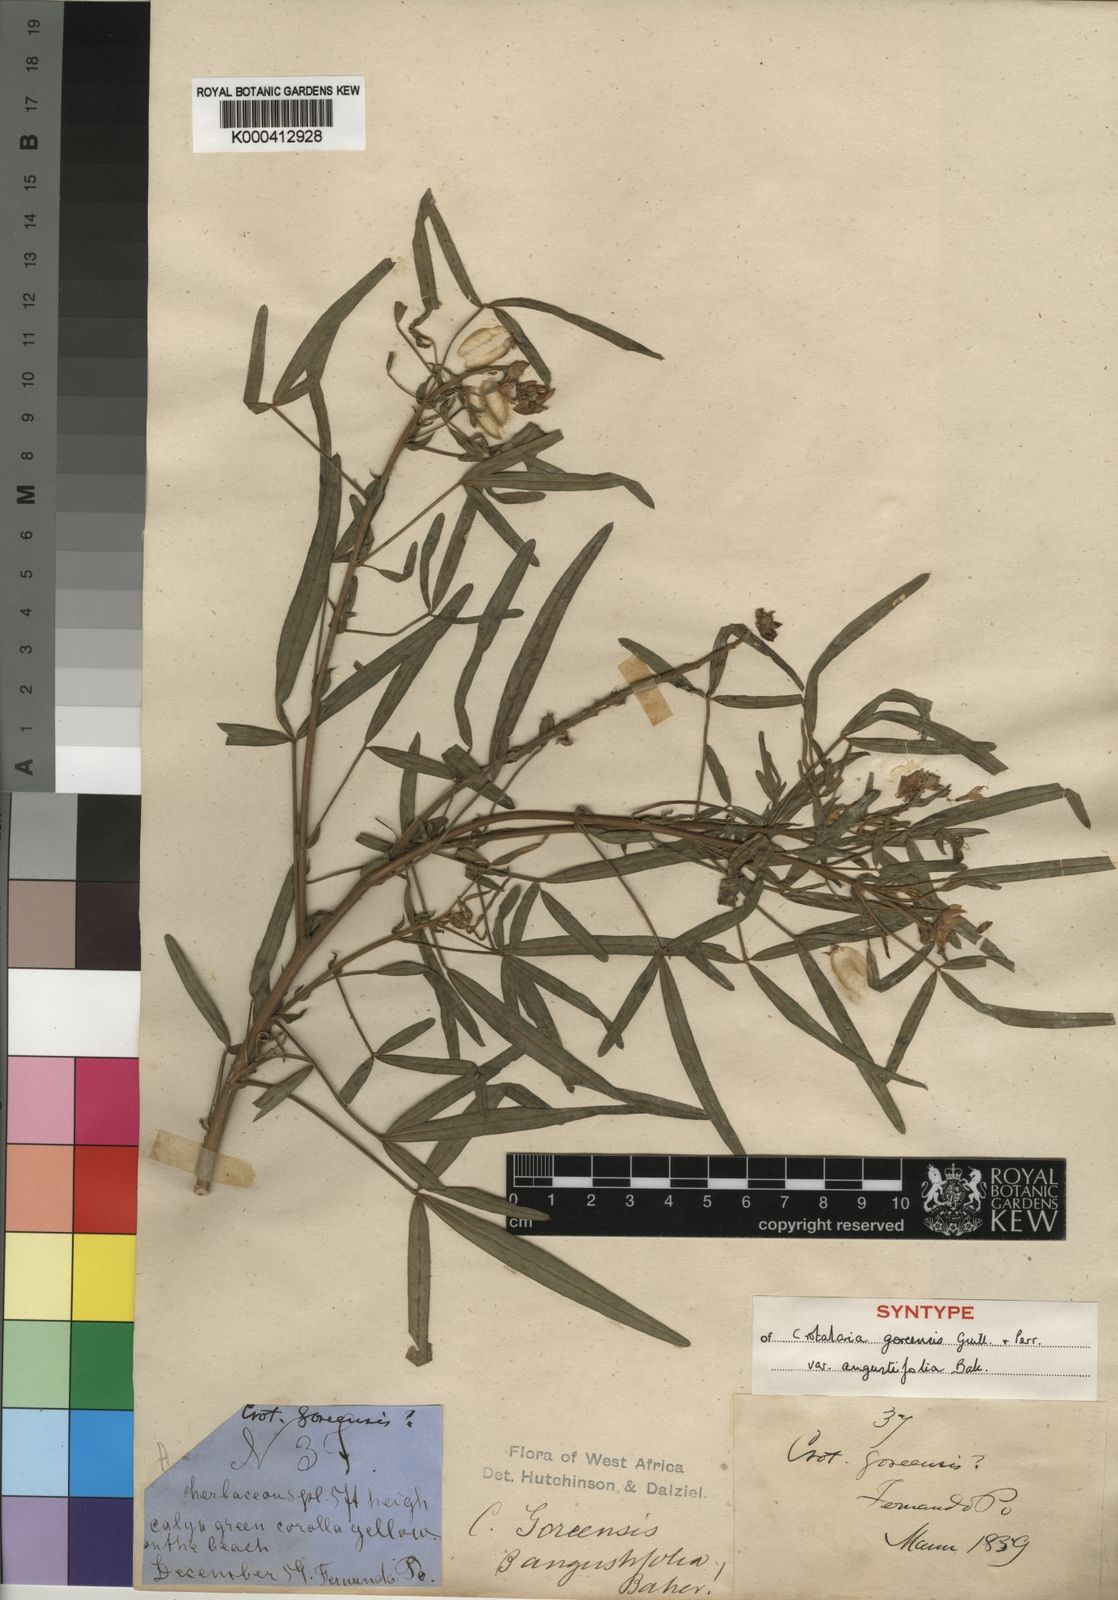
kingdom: Plantae
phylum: Tracheophyta
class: Magnoliopsida
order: Fabales
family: Fabaceae
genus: Crotalaria
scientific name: Crotalaria goreensis
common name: Gambia-pea
